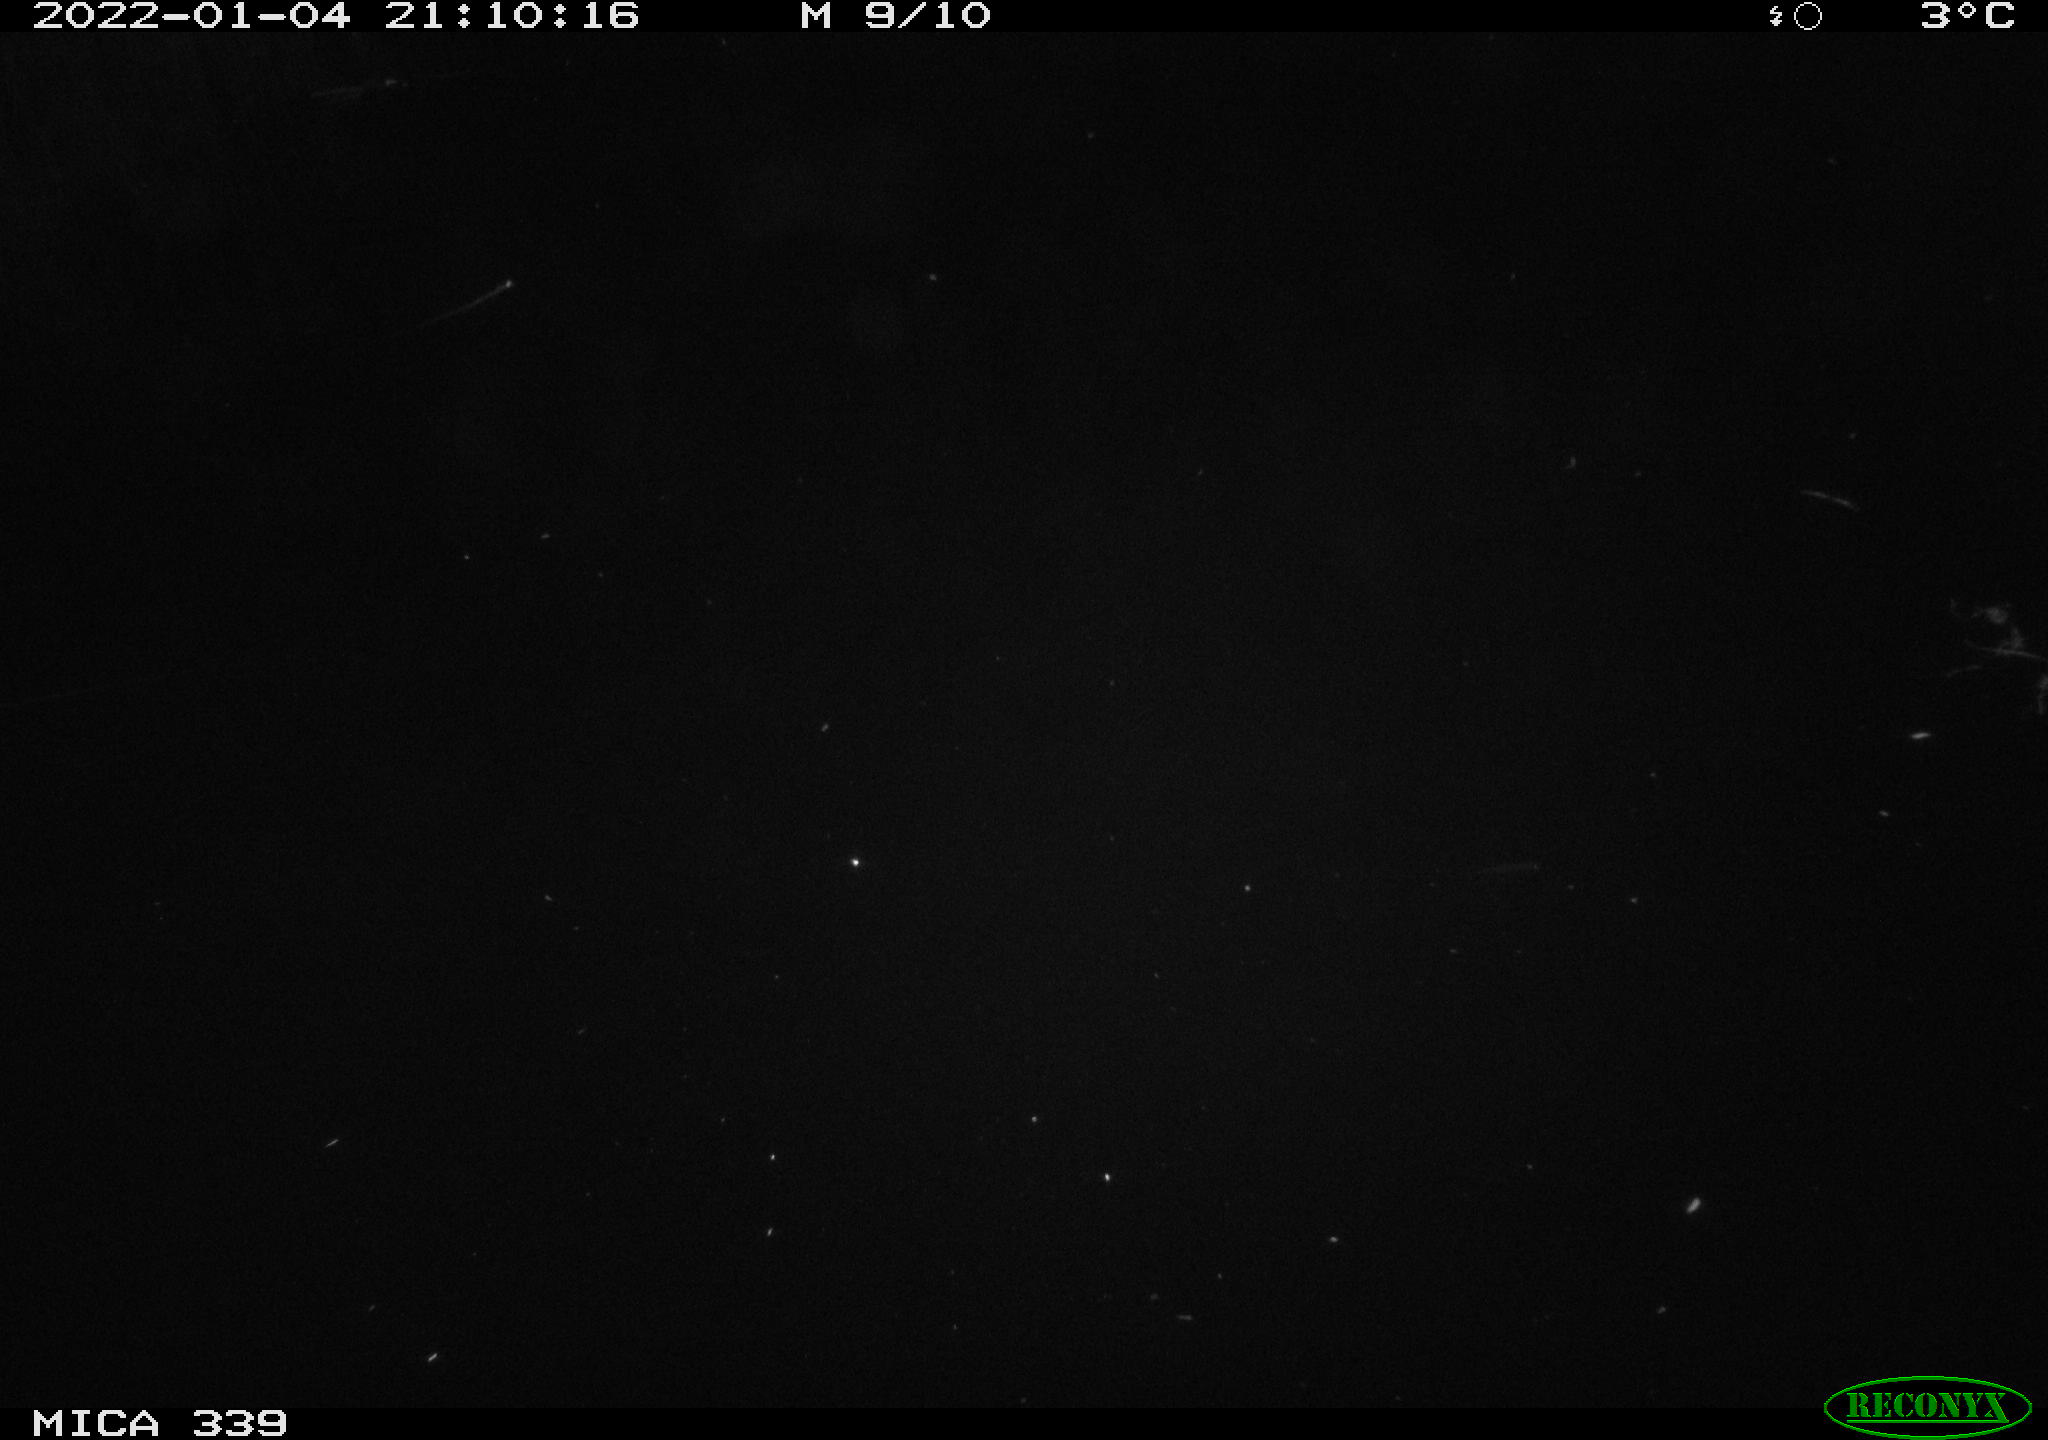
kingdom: Animalia
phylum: Chordata
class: Mammalia
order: Rodentia
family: Muridae
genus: Rattus
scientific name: Rattus norvegicus
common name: Brown rat
